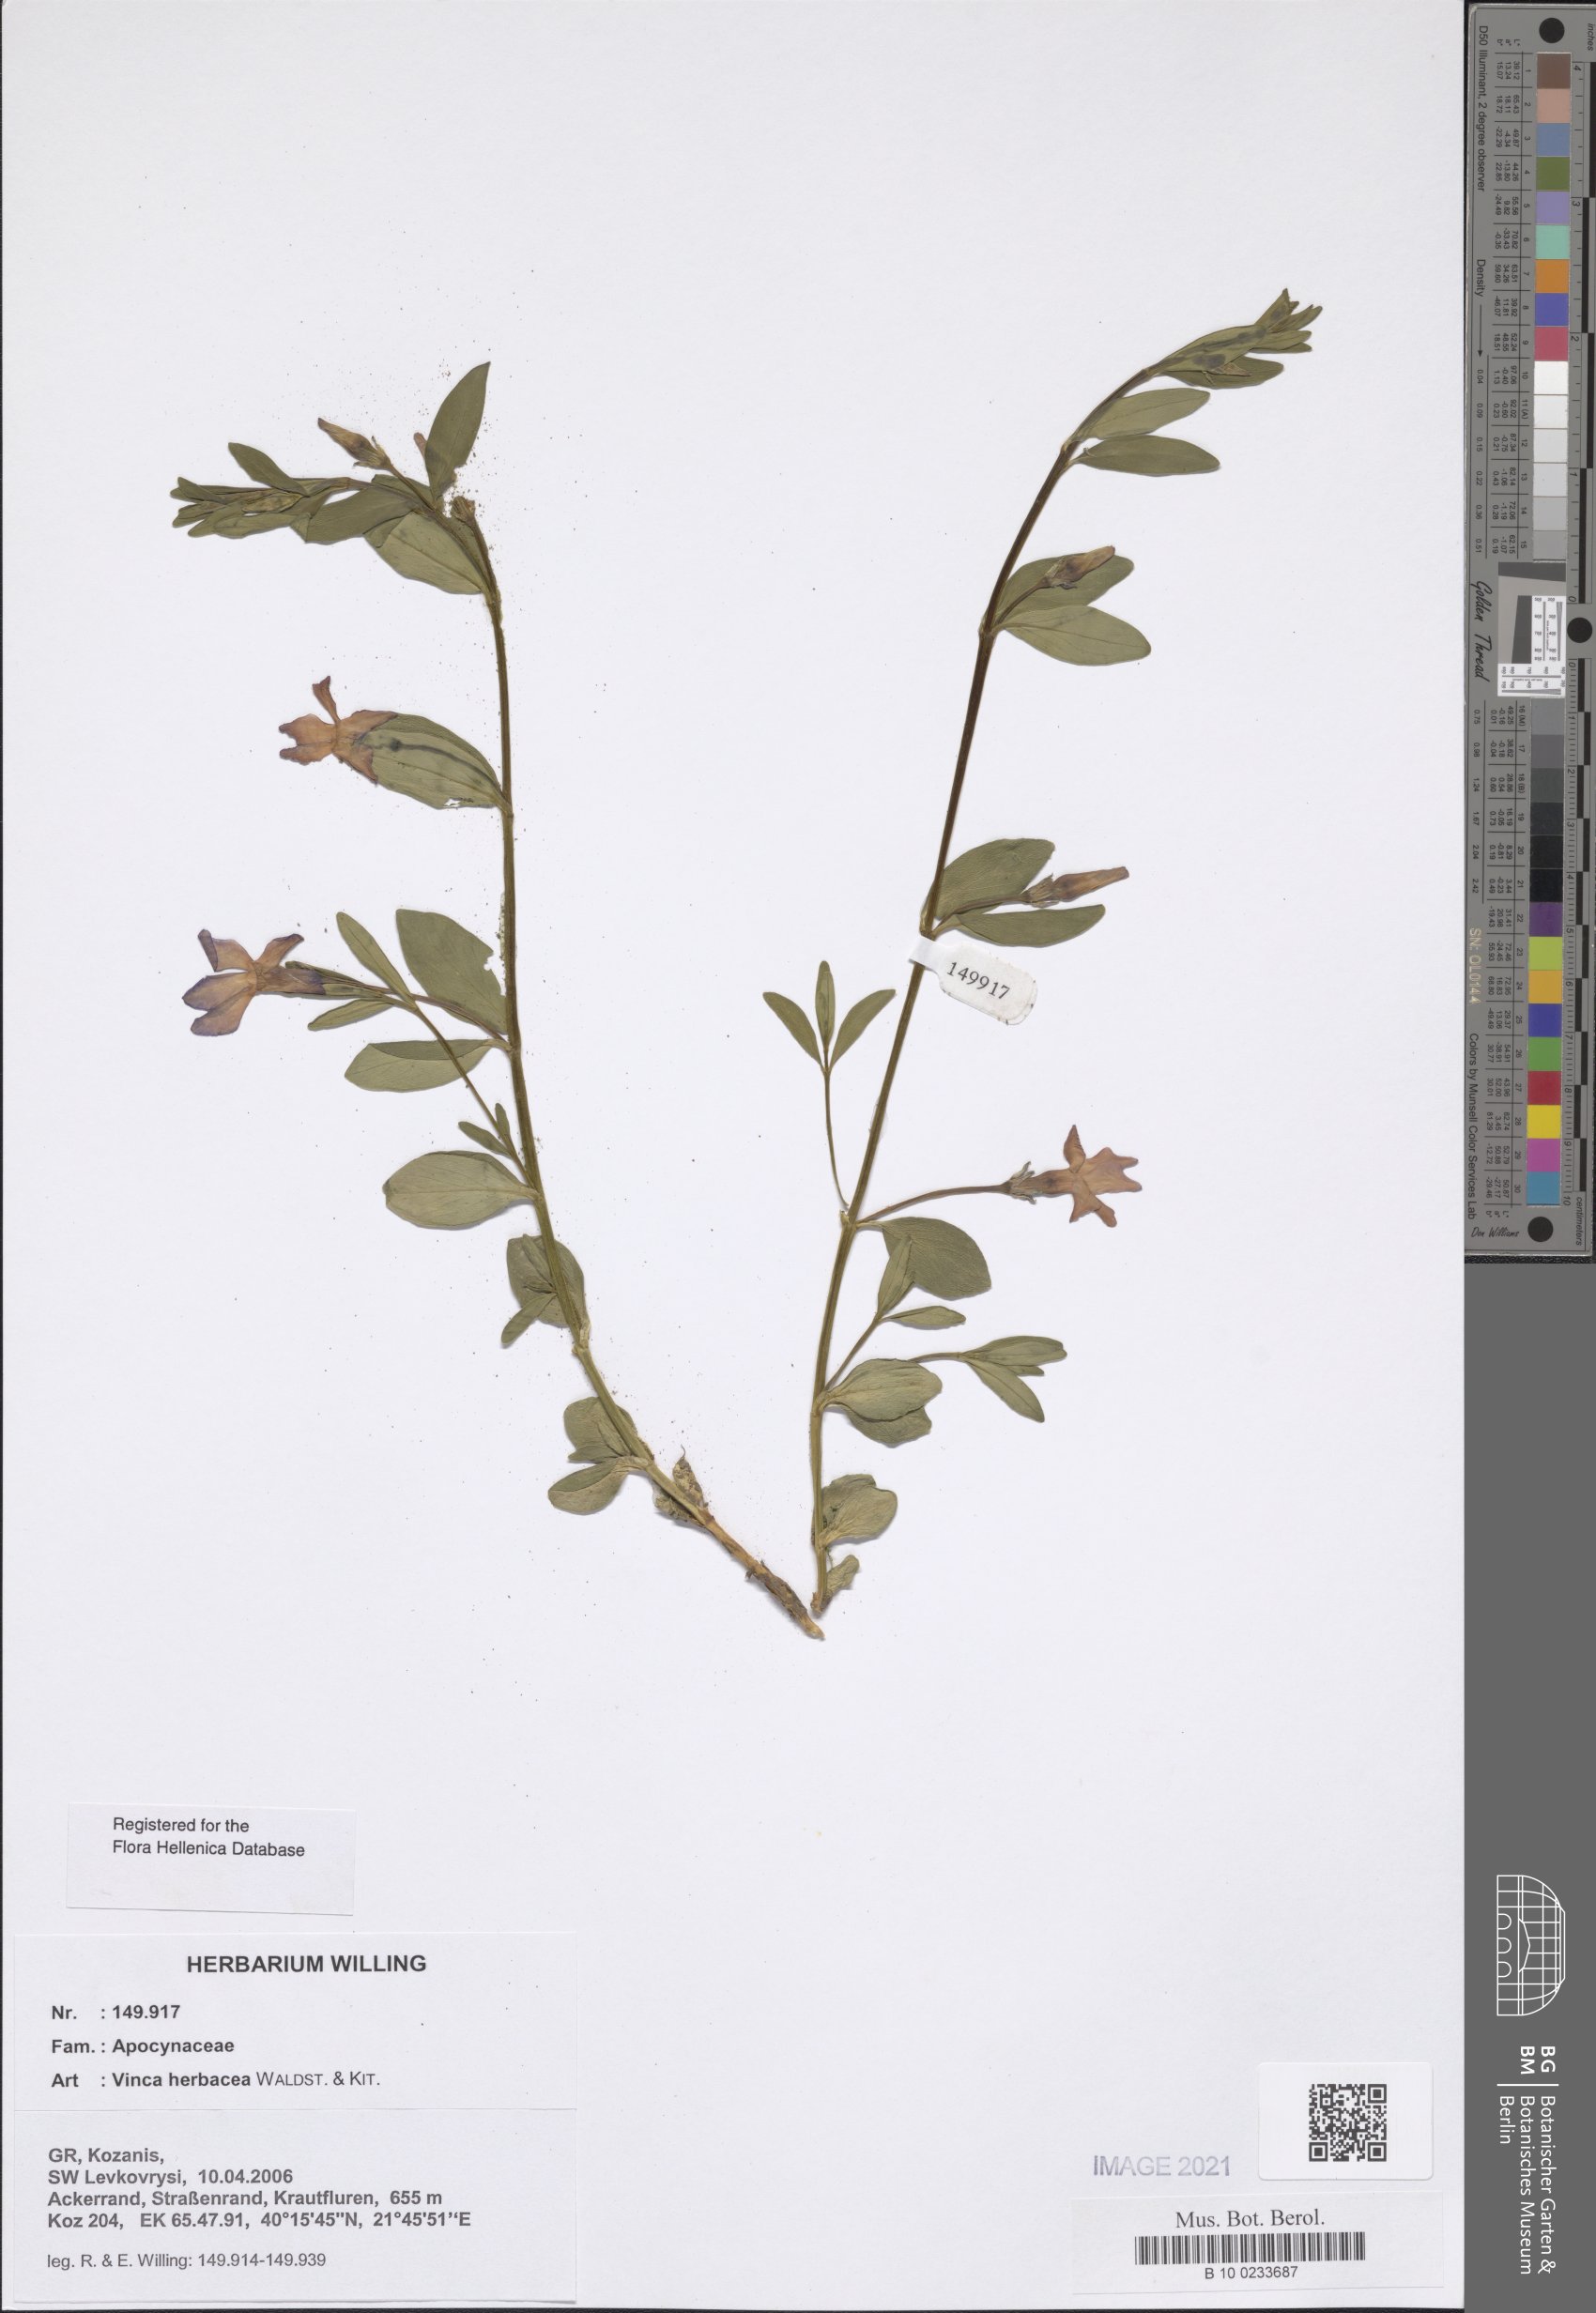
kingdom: Plantae
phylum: Tracheophyta
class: Magnoliopsida
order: Gentianales
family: Apocynaceae
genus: Vinca
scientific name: Vinca herbacea
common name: Herbaceous periwinkle
